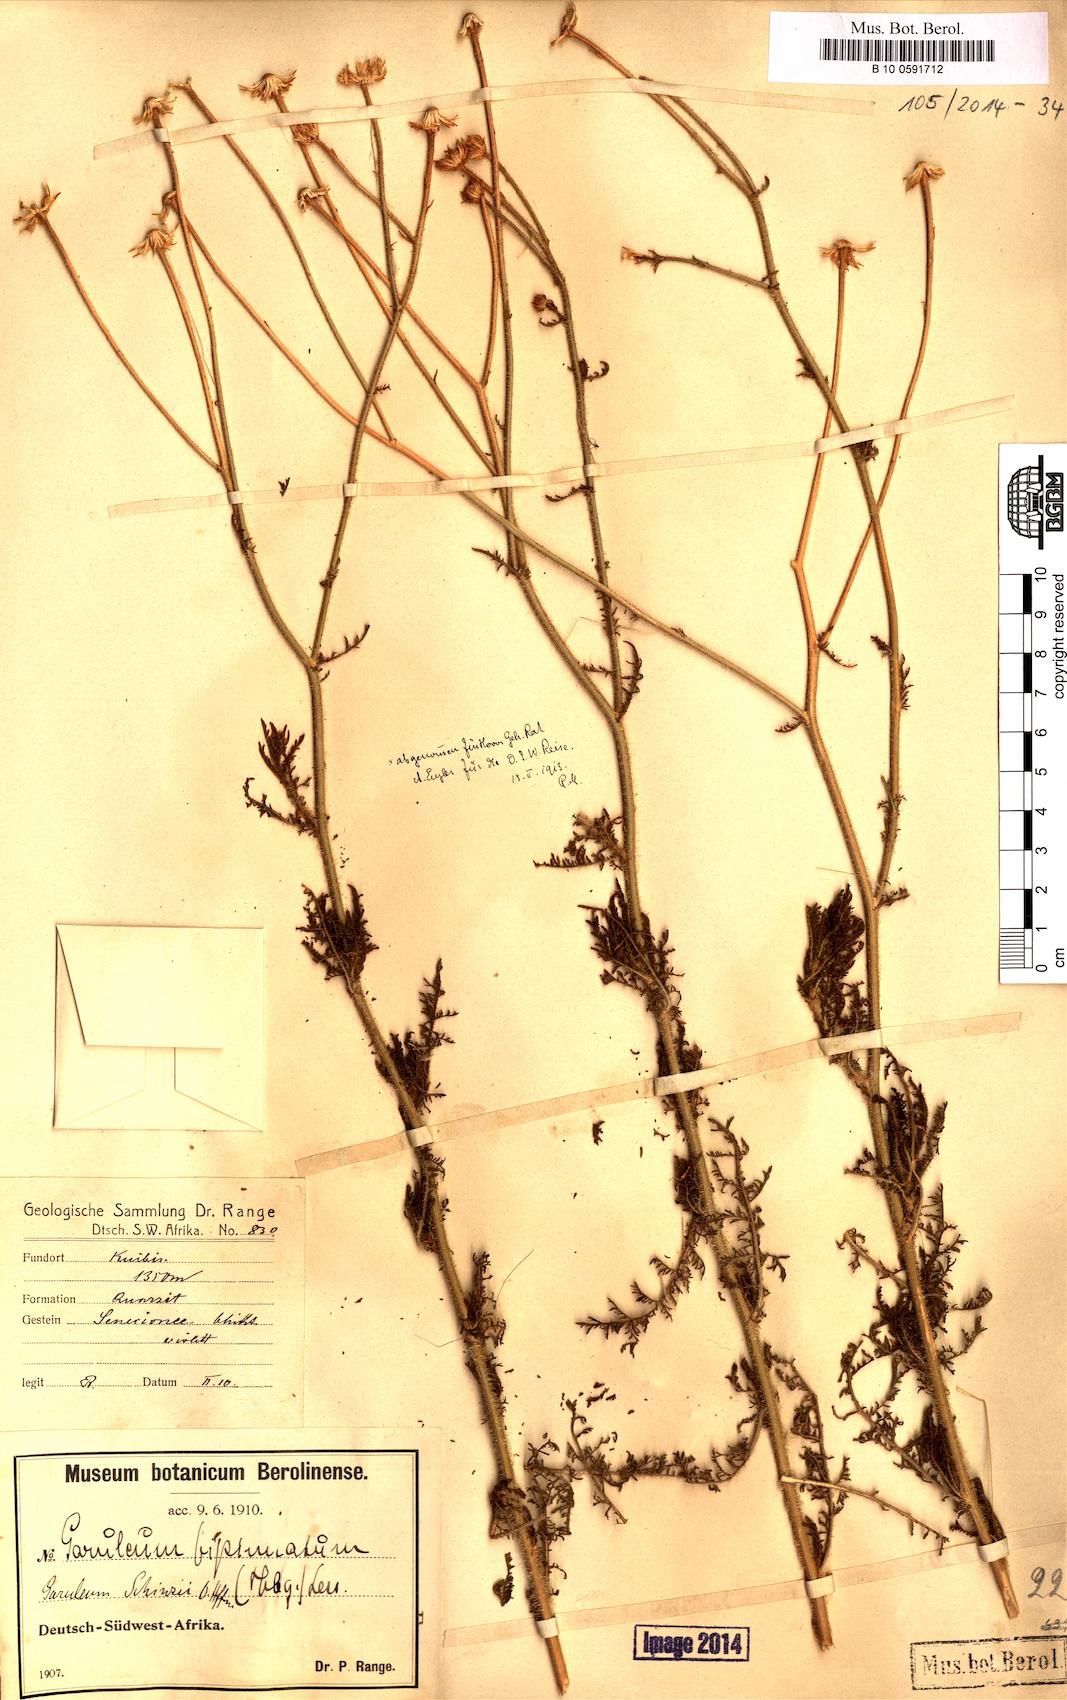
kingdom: Plantae
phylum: Tracheophyta
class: Magnoliopsida
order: Asterales
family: Asteraceae
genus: Garuleum
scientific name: Garuleum schinzii
